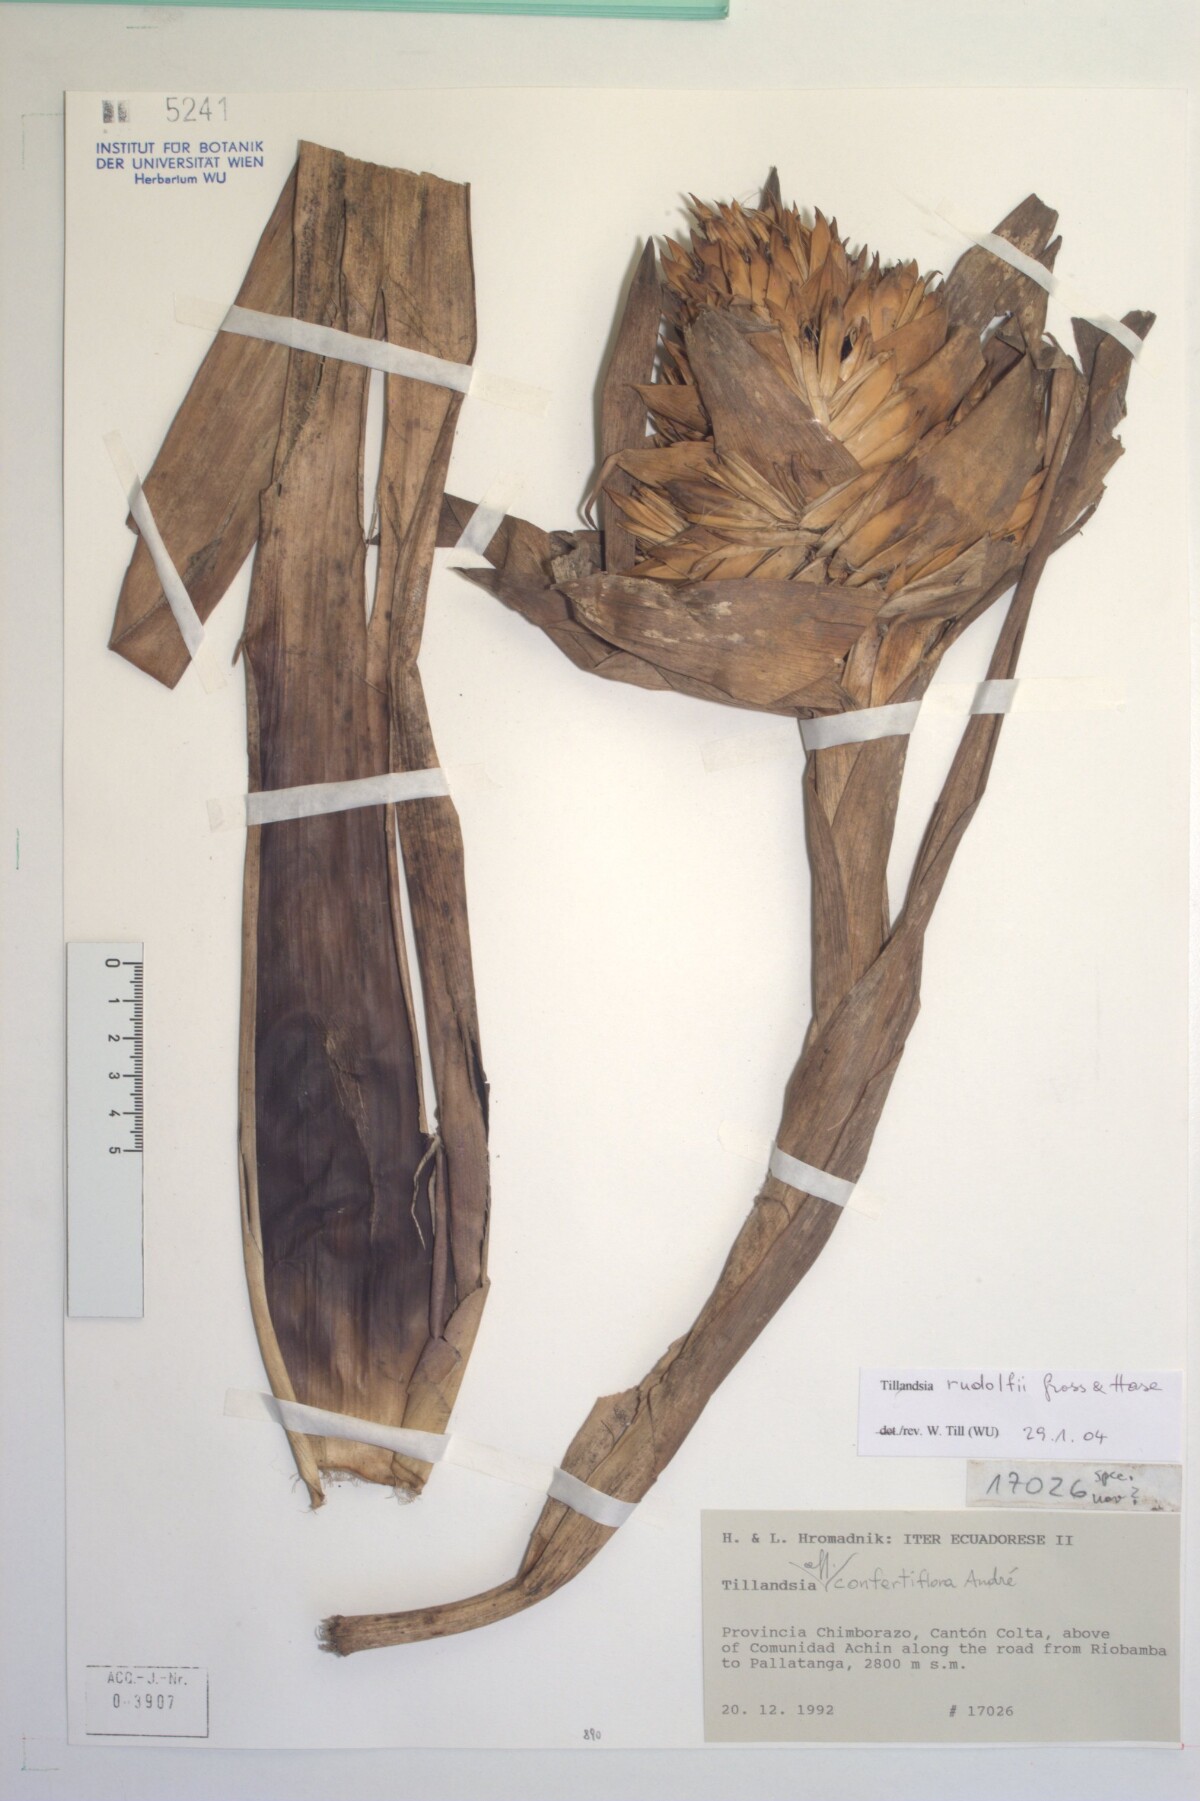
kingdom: Plantae
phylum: Tracheophyta
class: Liliopsida
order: Poales
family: Bromeliaceae
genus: Tillandsia
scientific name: Tillandsia rudolfii
